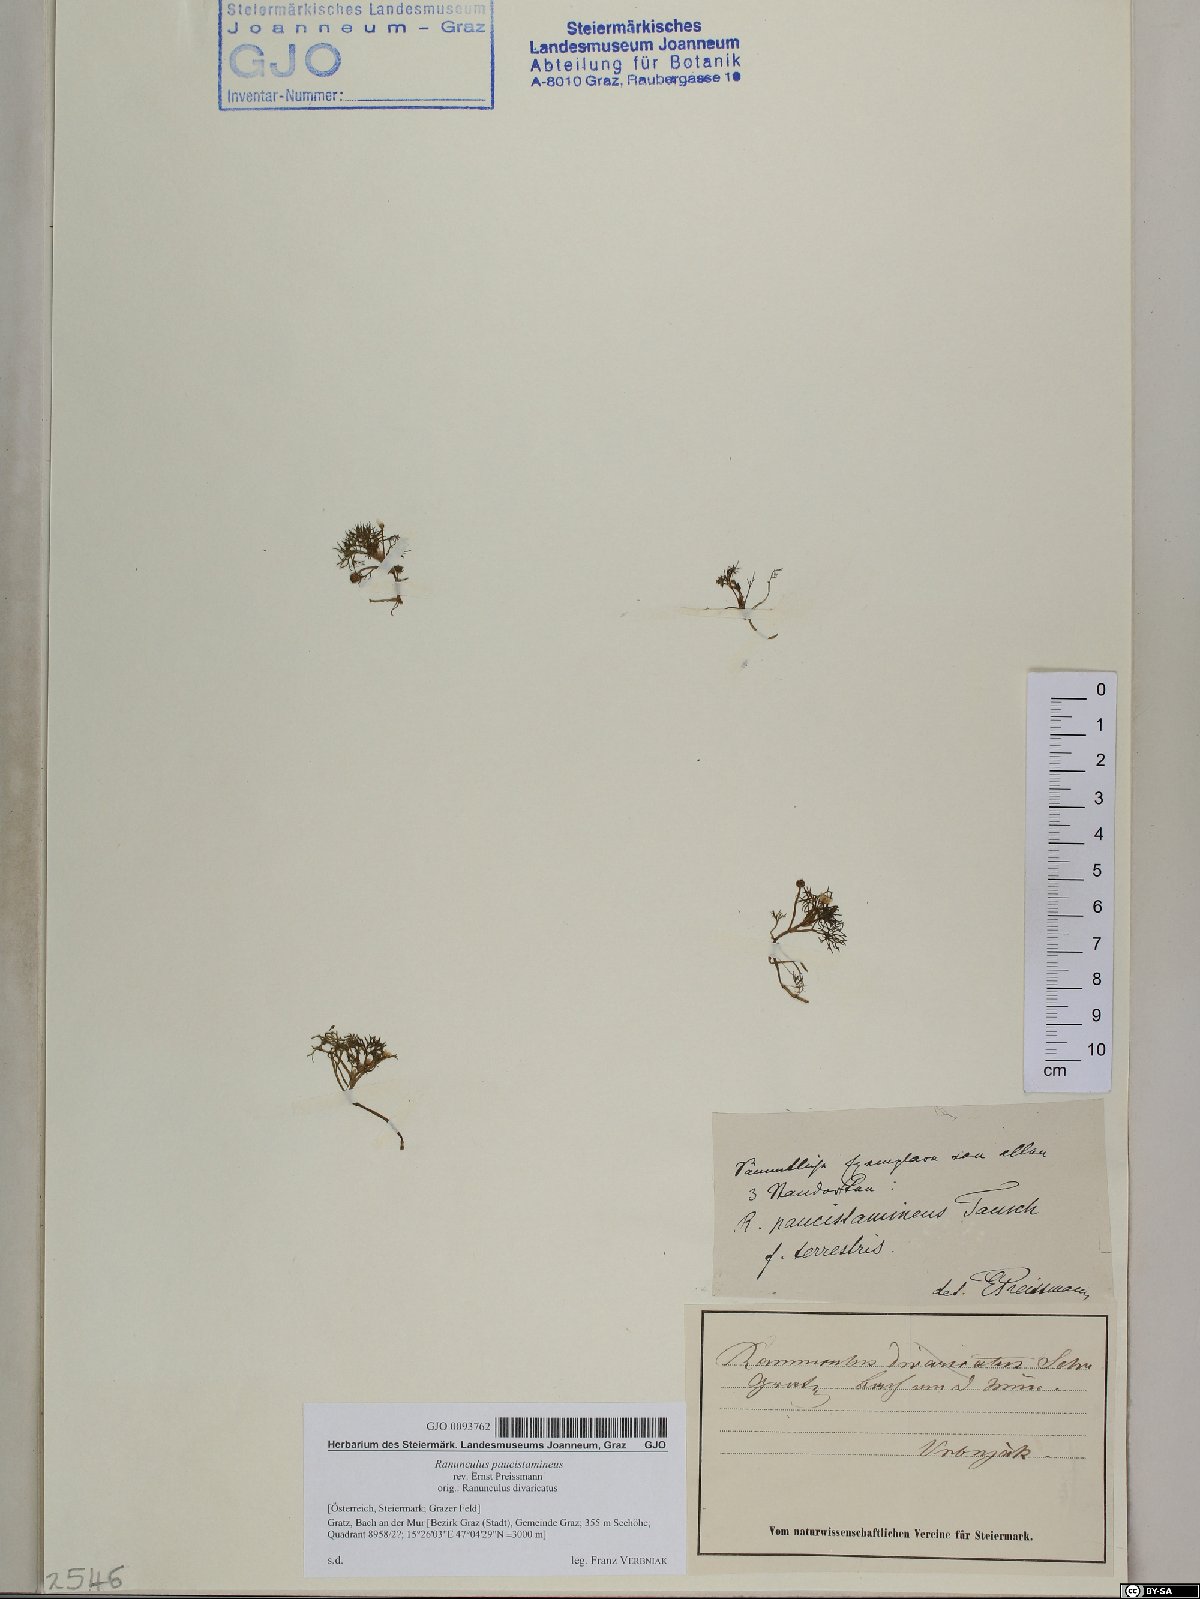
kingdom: Plantae
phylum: Tracheophyta
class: Magnoliopsida
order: Ranunculales
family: Ranunculaceae
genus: Ranunculus
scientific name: Ranunculus
